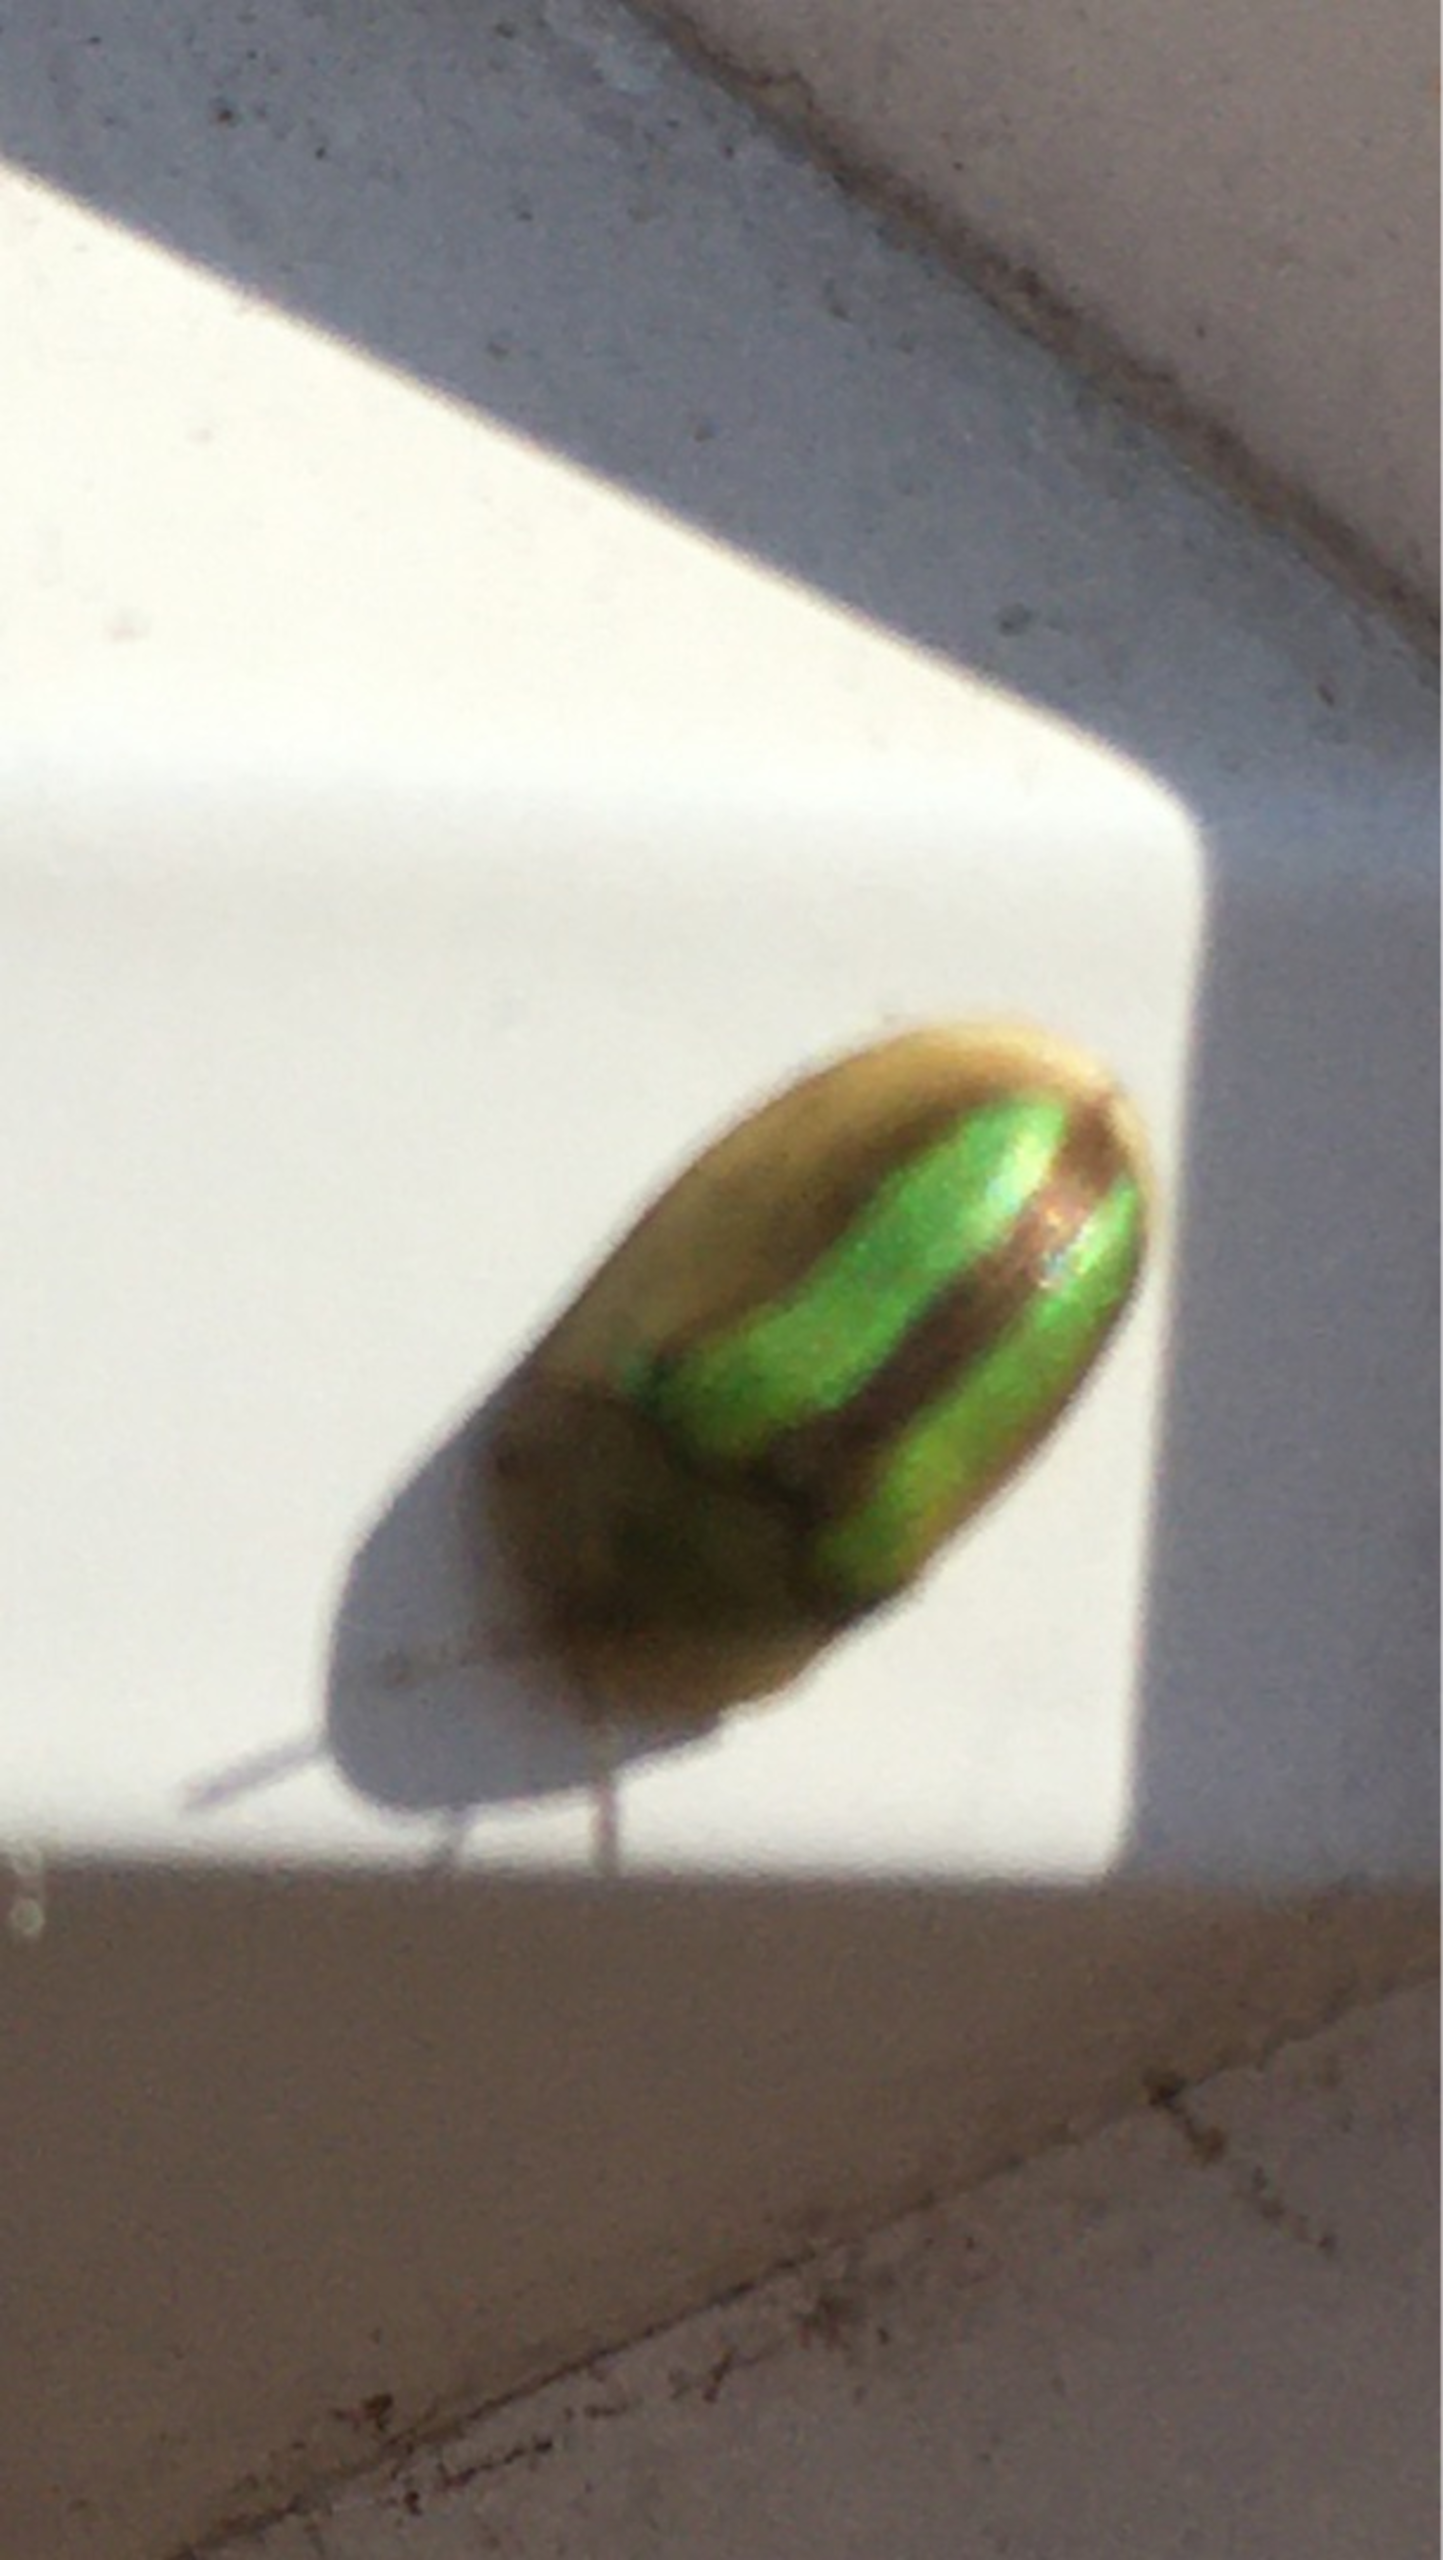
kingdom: Animalia
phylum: Arthropoda
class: Insecta
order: Coleoptera
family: Chrysomelidae
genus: Cassida
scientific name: Cassida vittata
